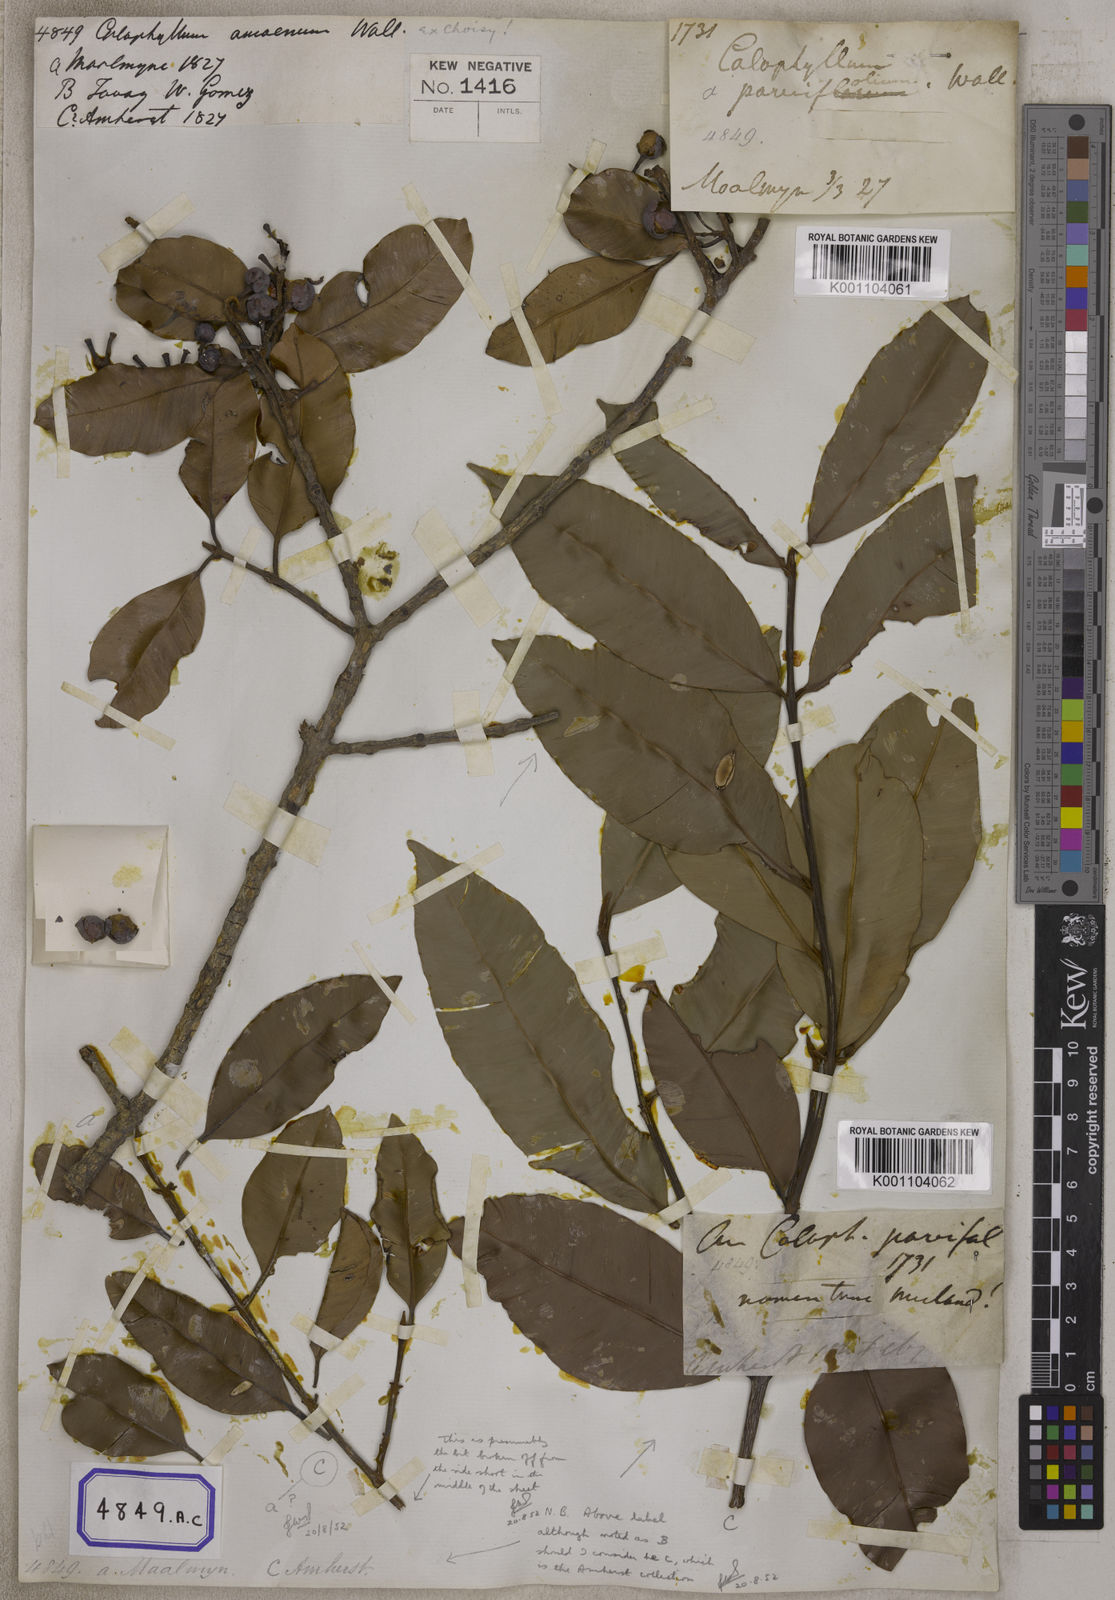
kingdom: Plantae
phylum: Tracheophyta
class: Magnoliopsida
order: Malpighiales
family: Calophyllaceae
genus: Calophyllum
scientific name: Calophyllum
